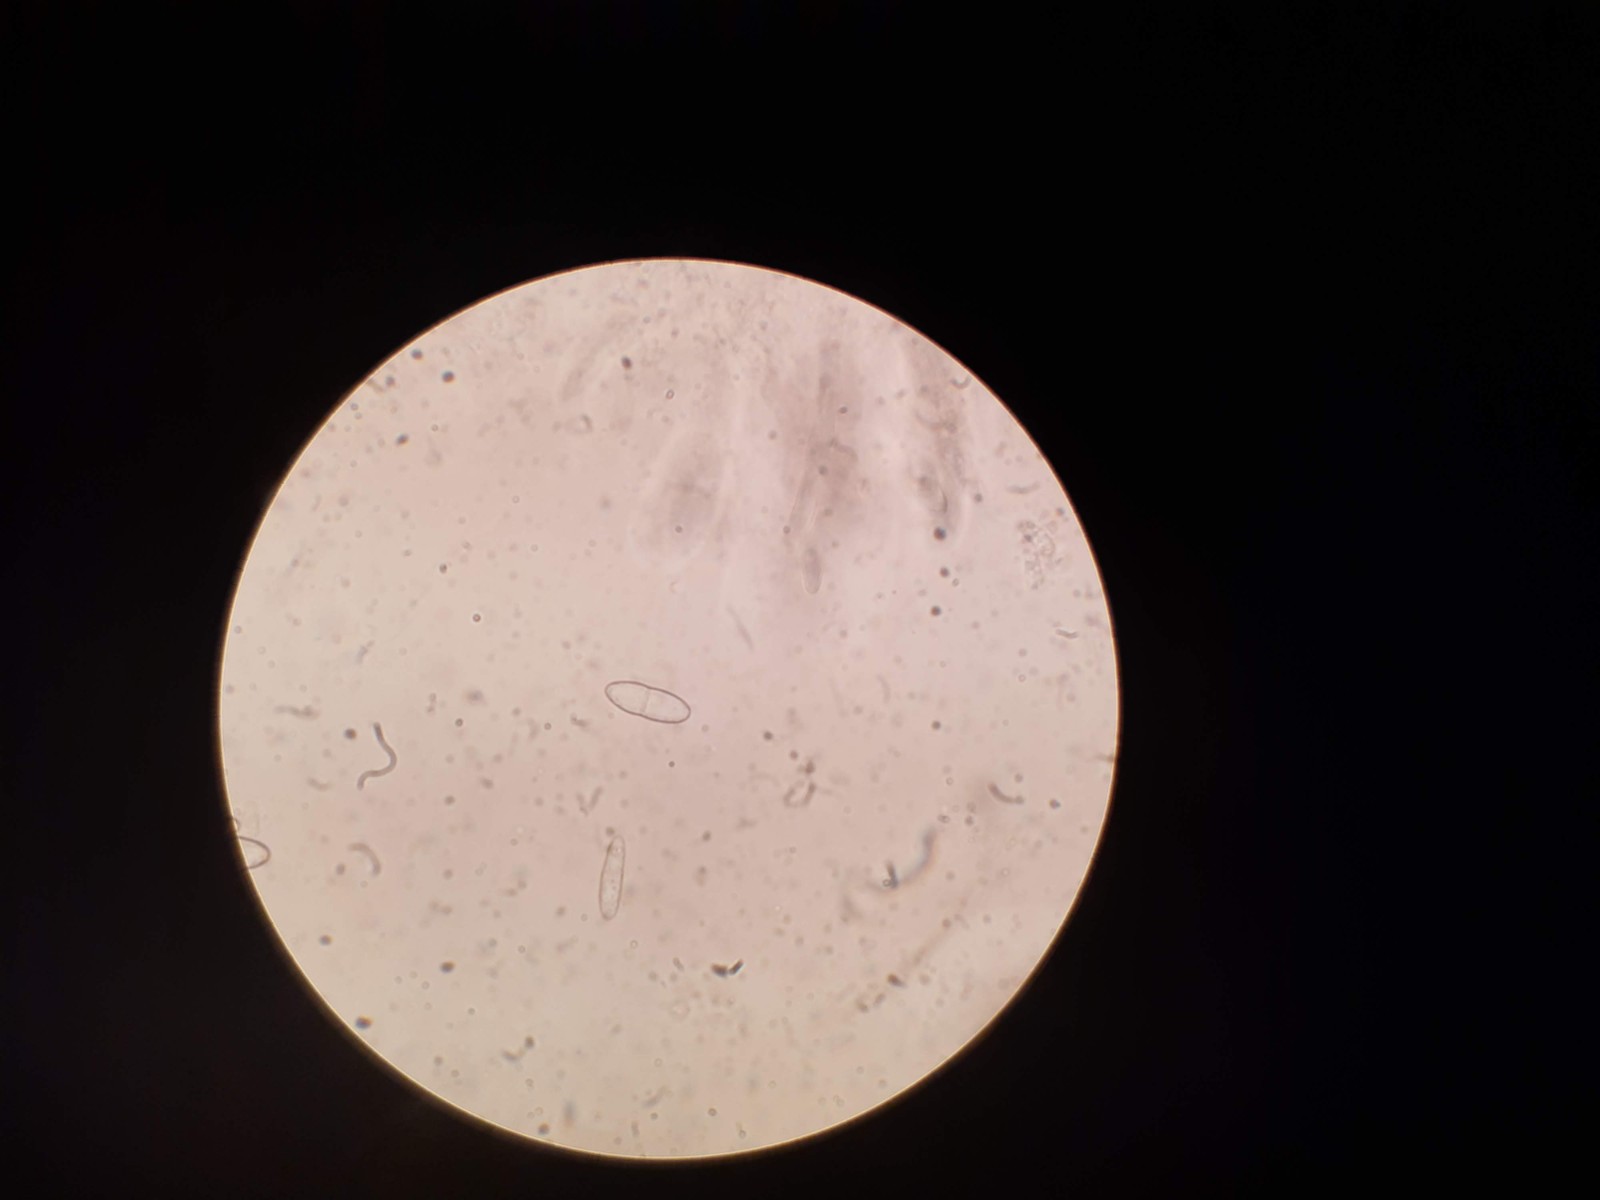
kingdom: Fungi
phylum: Ascomycota
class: Sordariomycetes
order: Hypocreales
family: Nectriaceae
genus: Neonectria
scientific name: Neonectria ditissima
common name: frugttræ-cinnobersvamp
